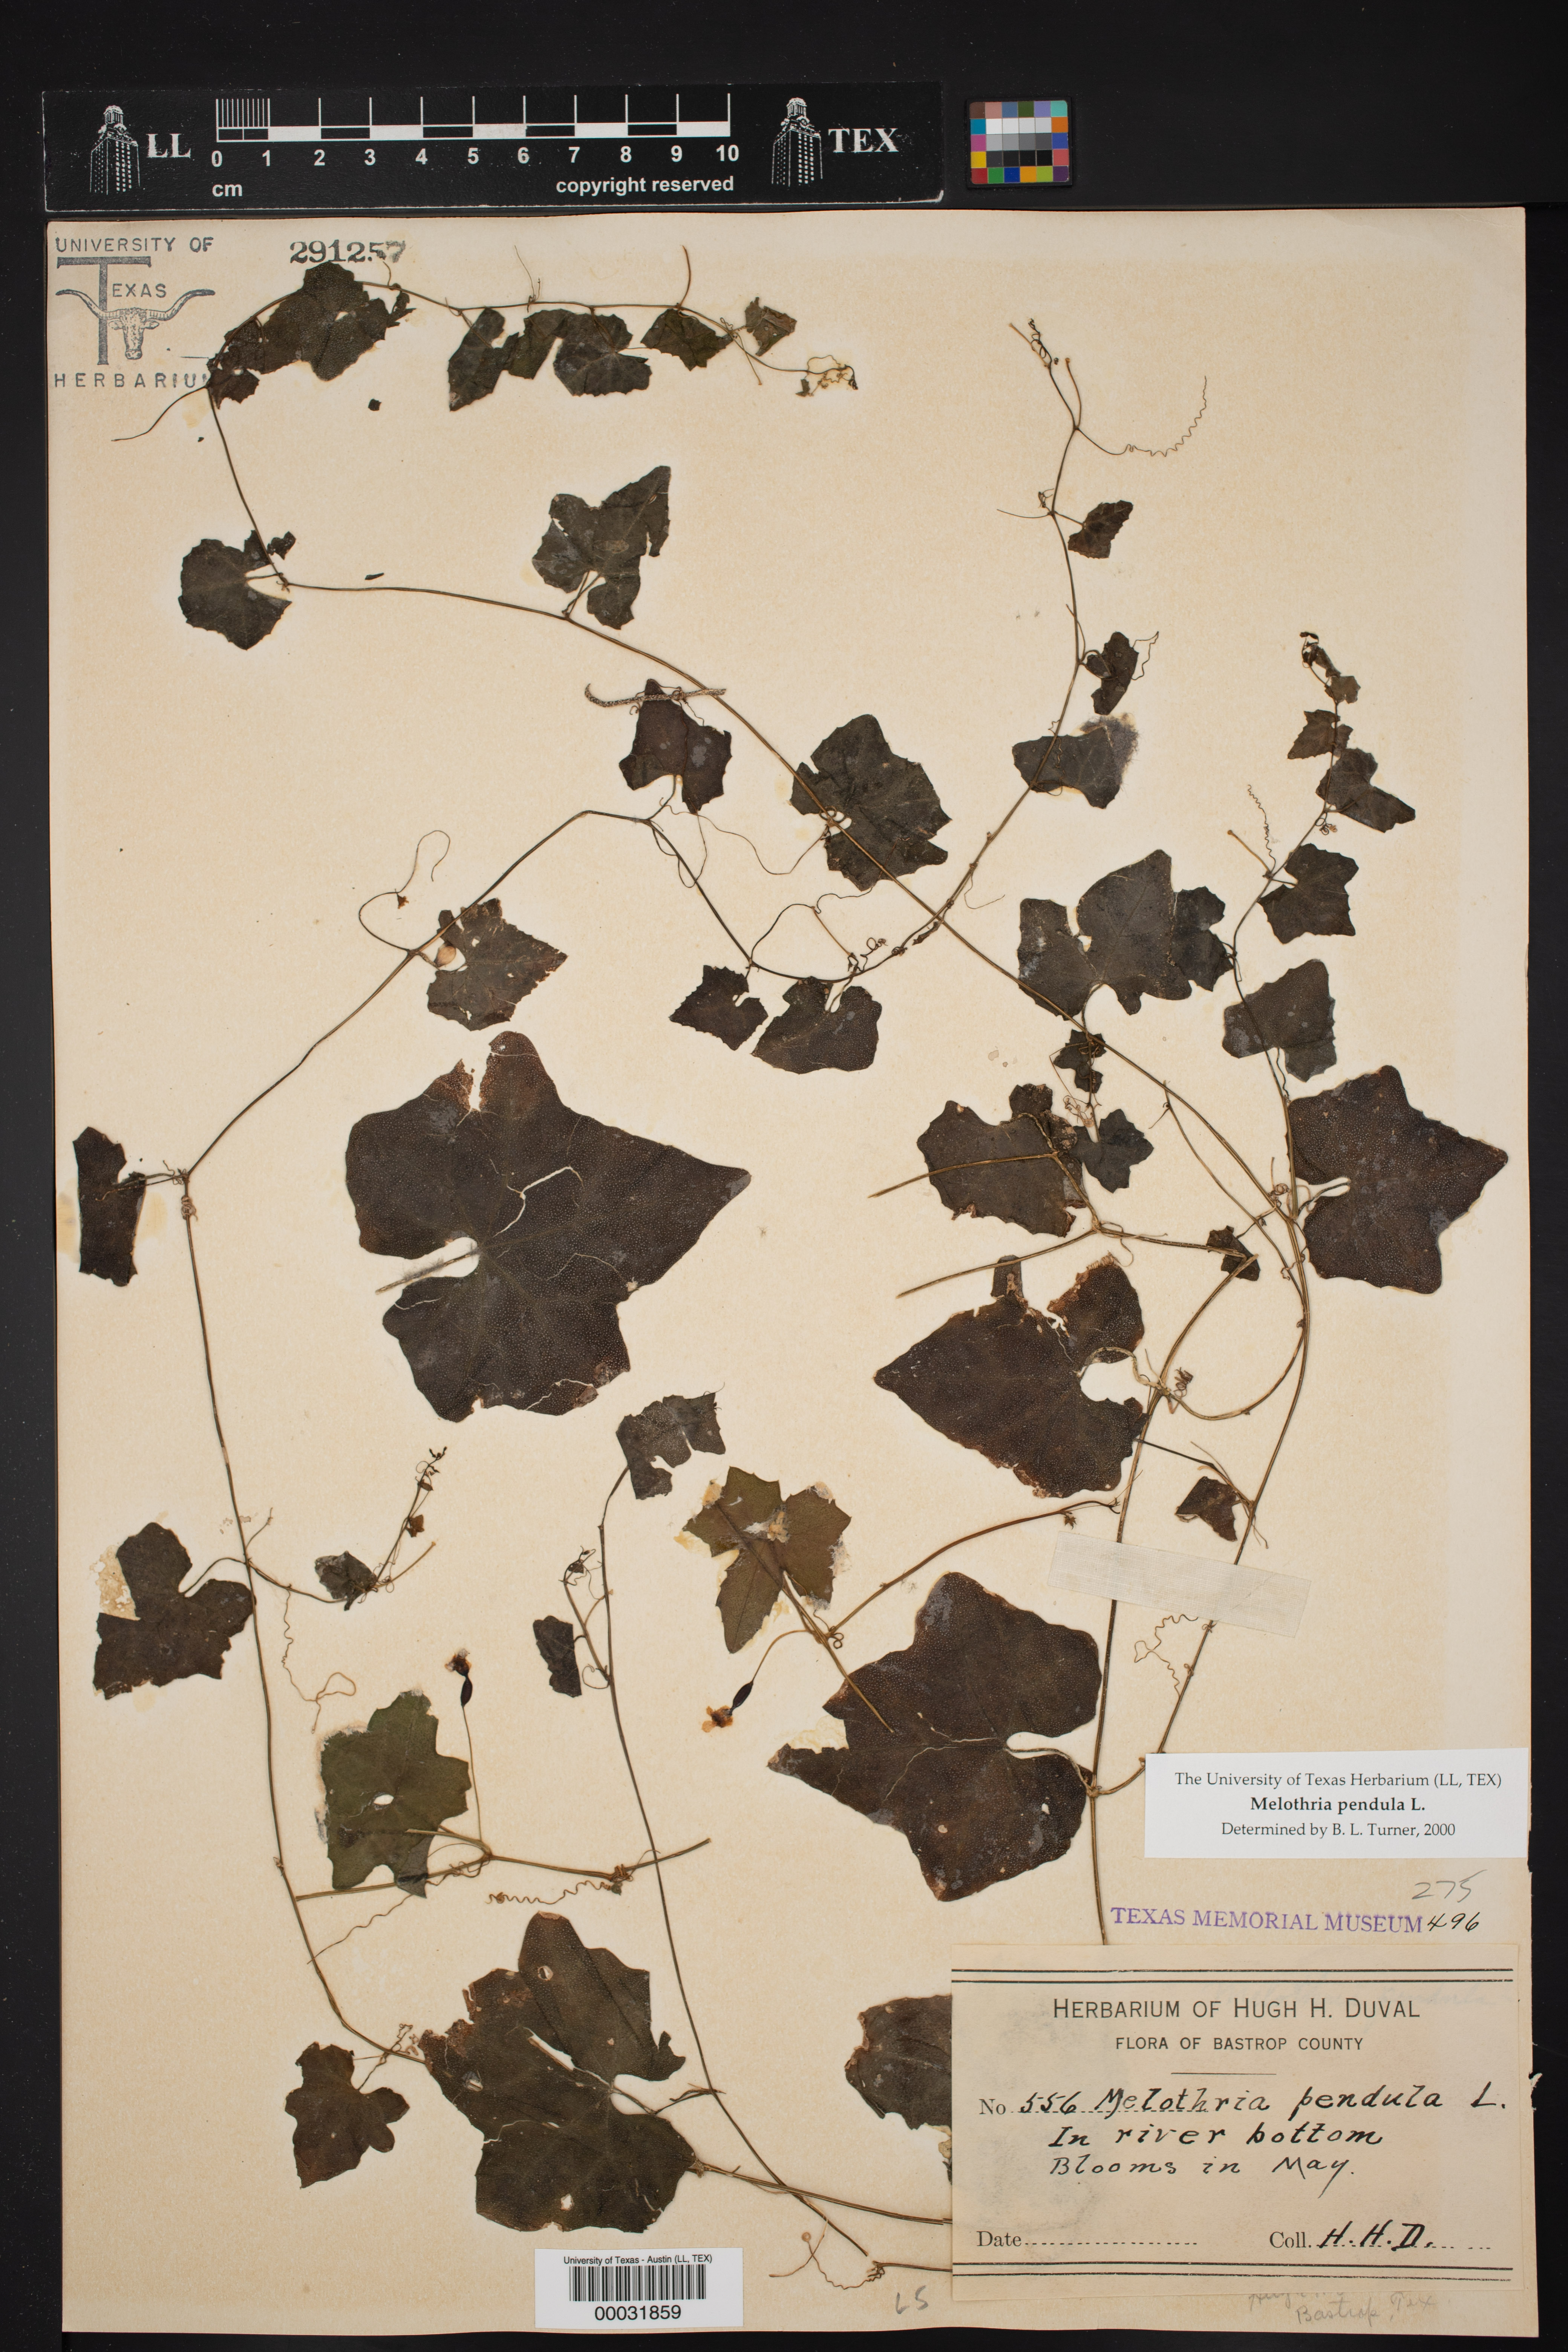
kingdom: Plantae
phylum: Tracheophyta
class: Magnoliopsida
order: Cucurbitales
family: Cucurbitaceae
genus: Melothria
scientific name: Melothria pendula
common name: Creeping-cucumber
